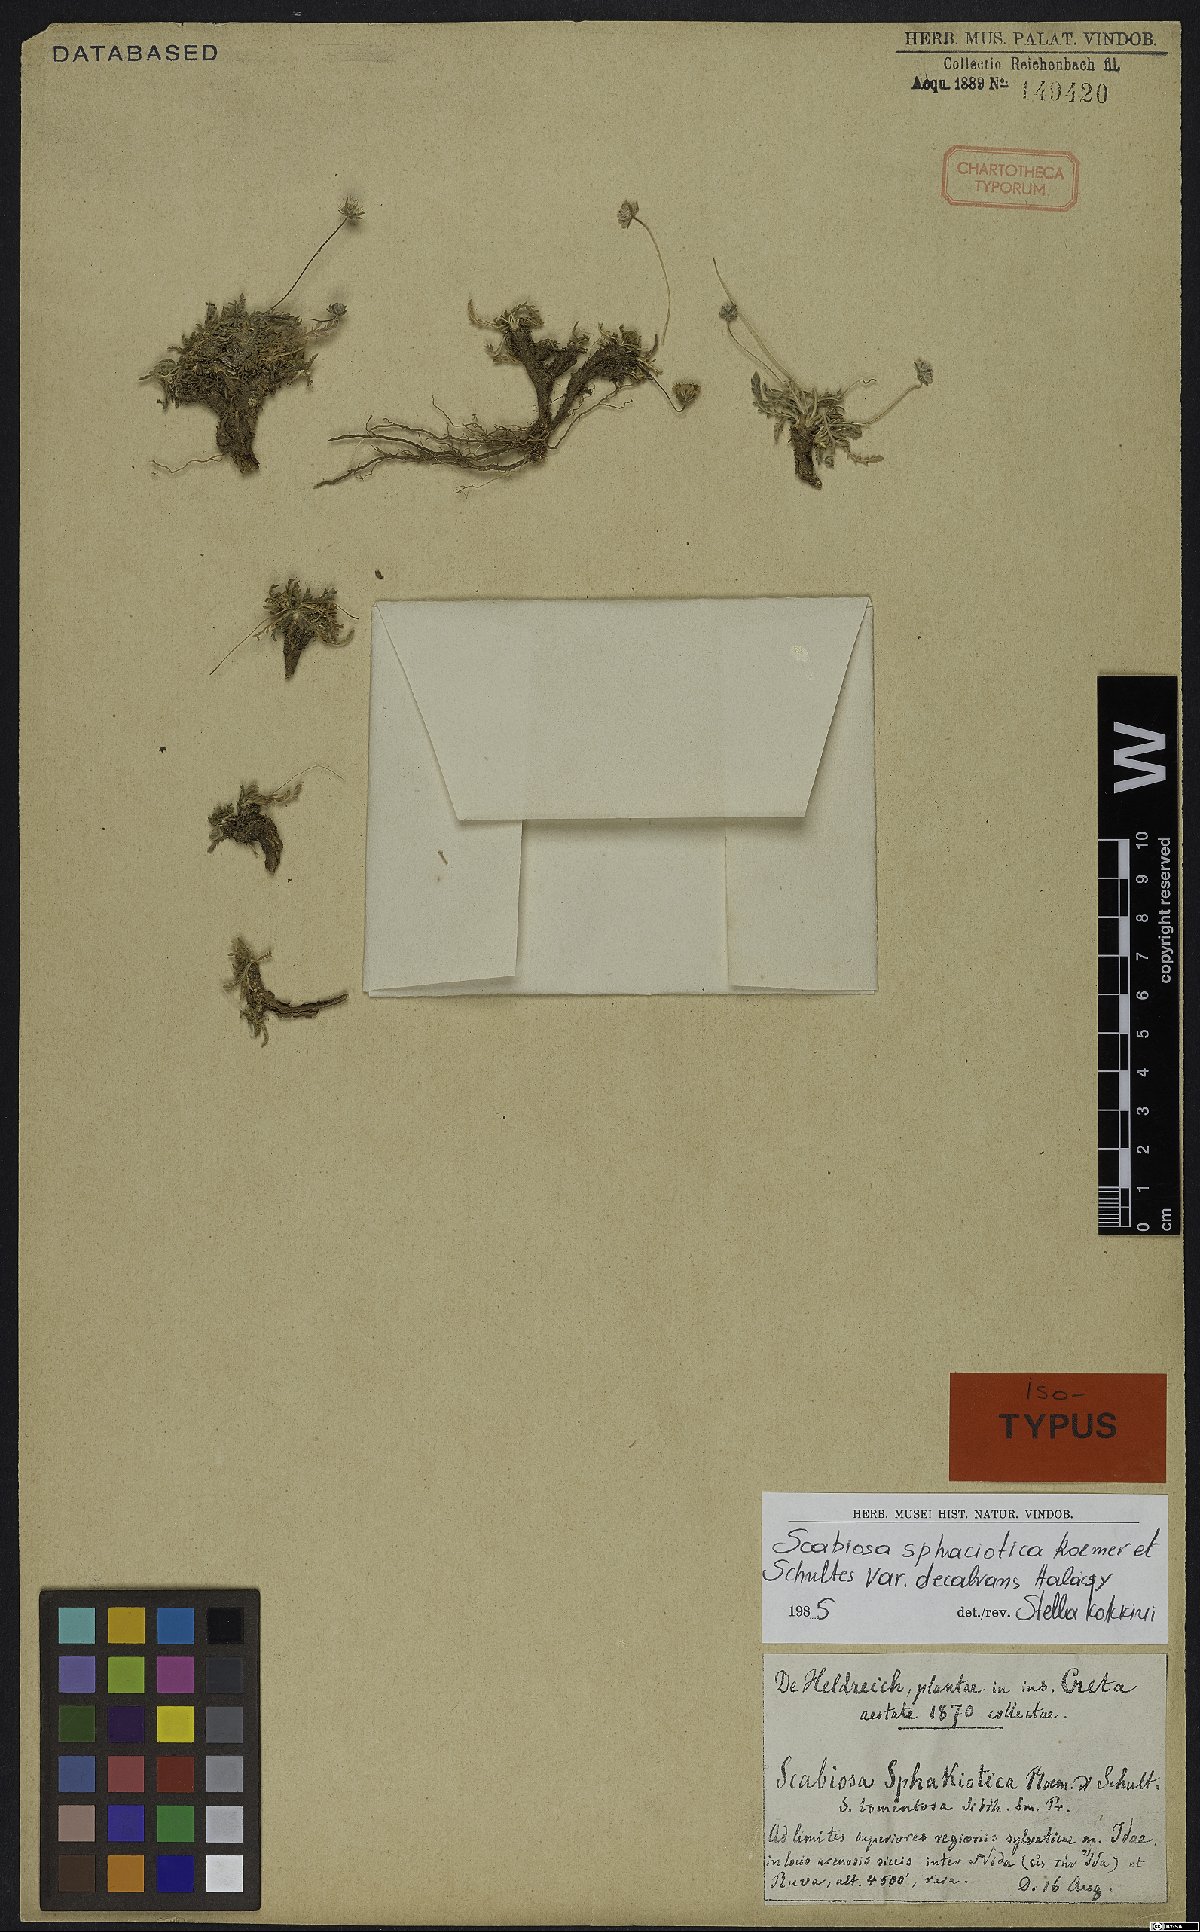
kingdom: Plantae
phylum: Tracheophyta
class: Magnoliopsida
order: Dipsacales
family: Caprifoliaceae
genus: Lomelosia
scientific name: Lomelosia sphaciotica
